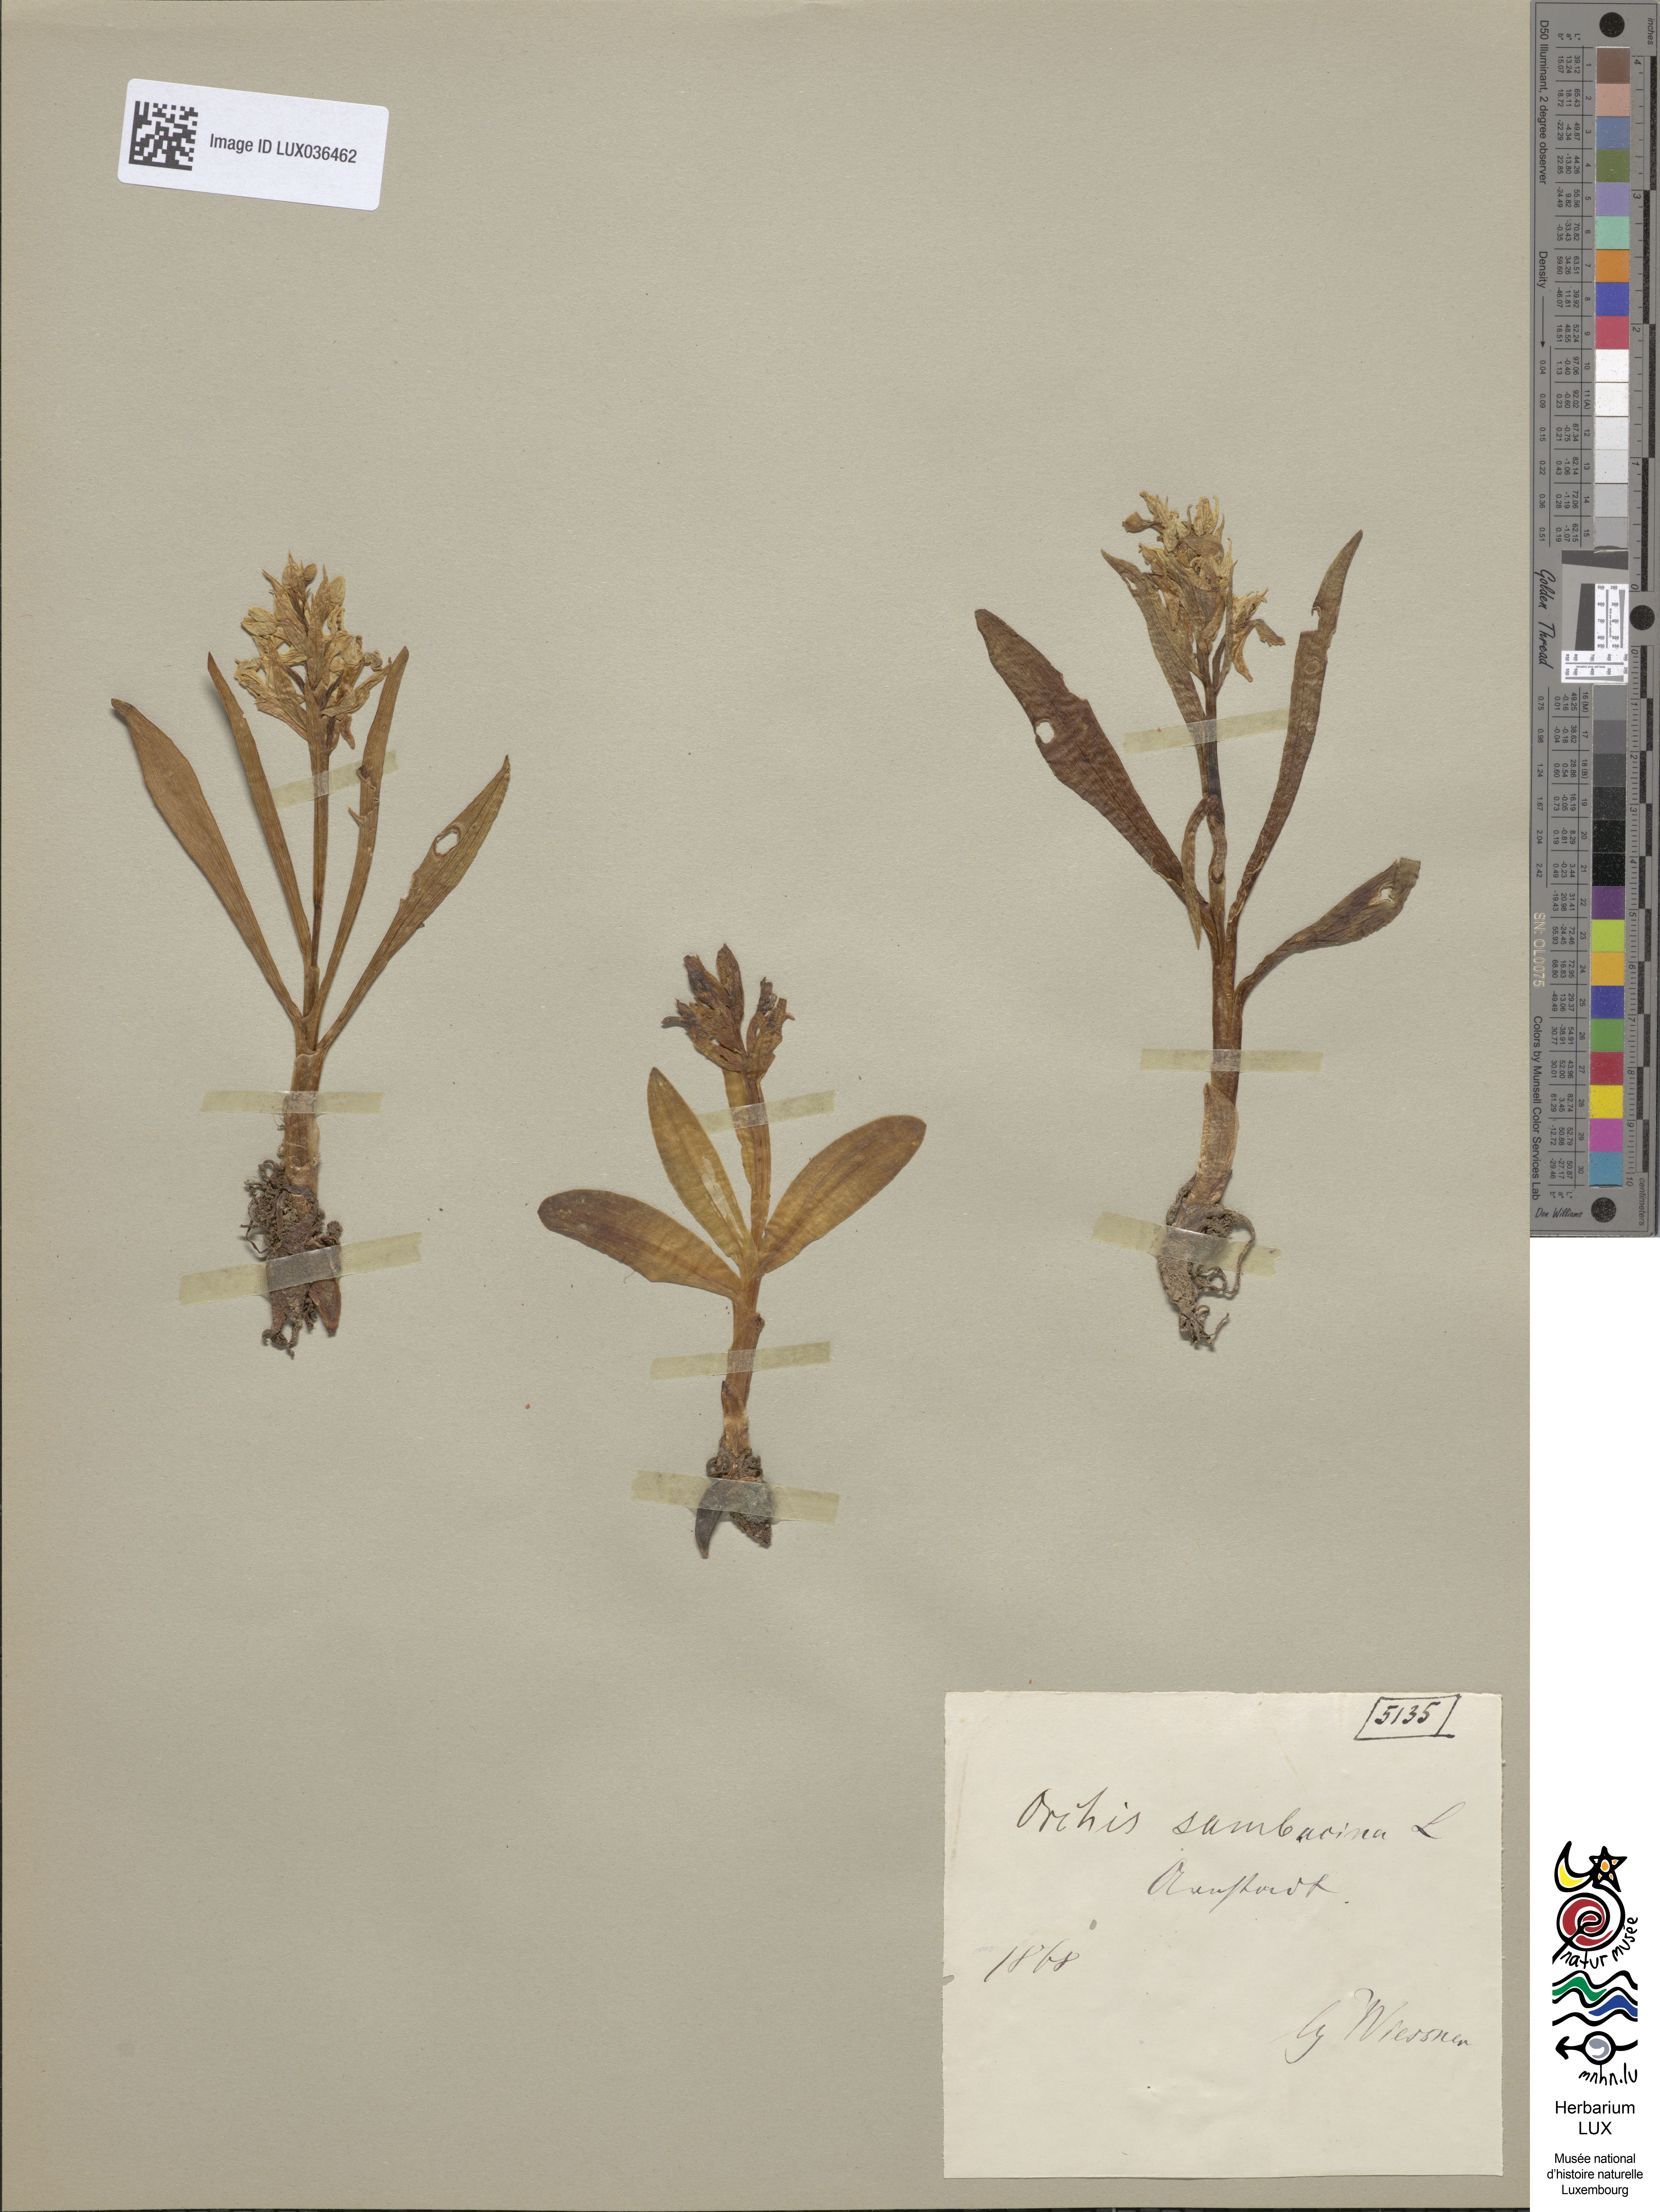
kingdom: Plantae
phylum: Tracheophyta
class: Liliopsida
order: Asparagales
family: Orchidaceae
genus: Dactylorhiza
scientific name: Dactylorhiza sambucina
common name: Elder-flowered orchid
